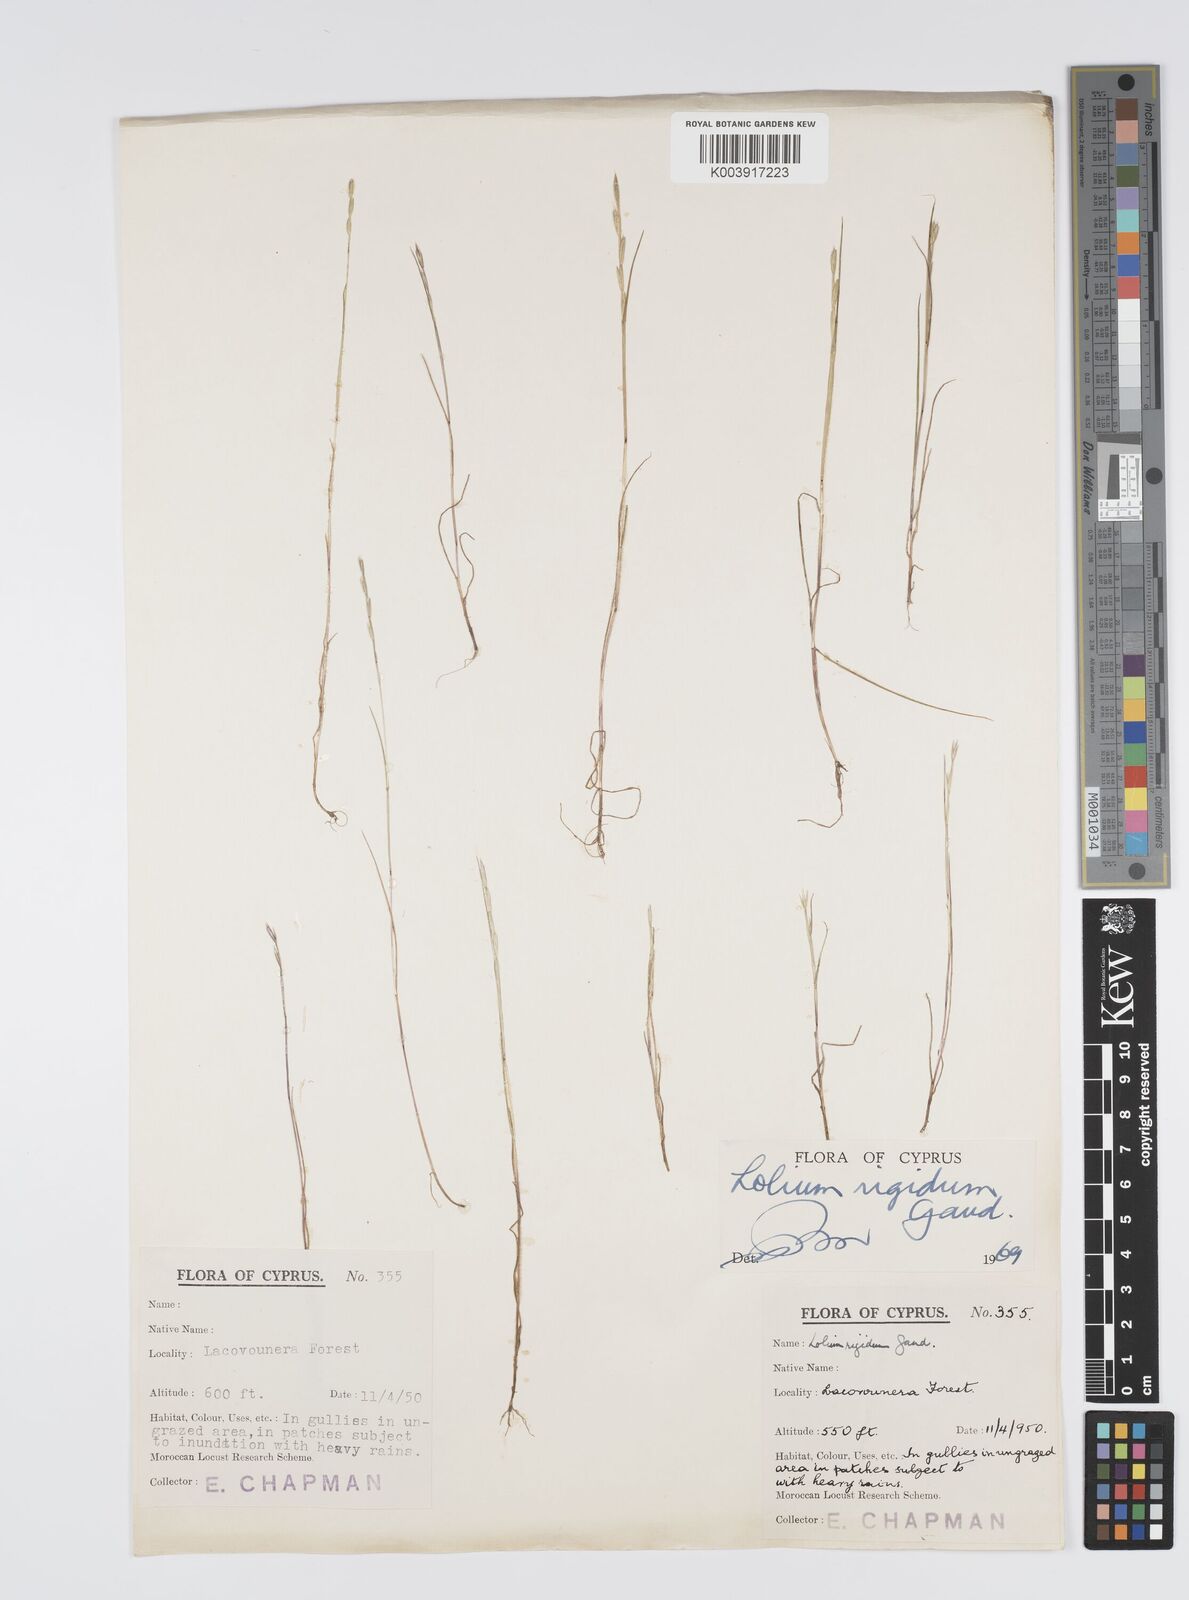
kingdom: Plantae
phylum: Tracheophyta
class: Liliopsida
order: Poales
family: Poaceae
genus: Lolium
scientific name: Lolium rigidum
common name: Wimmera ryegrass
